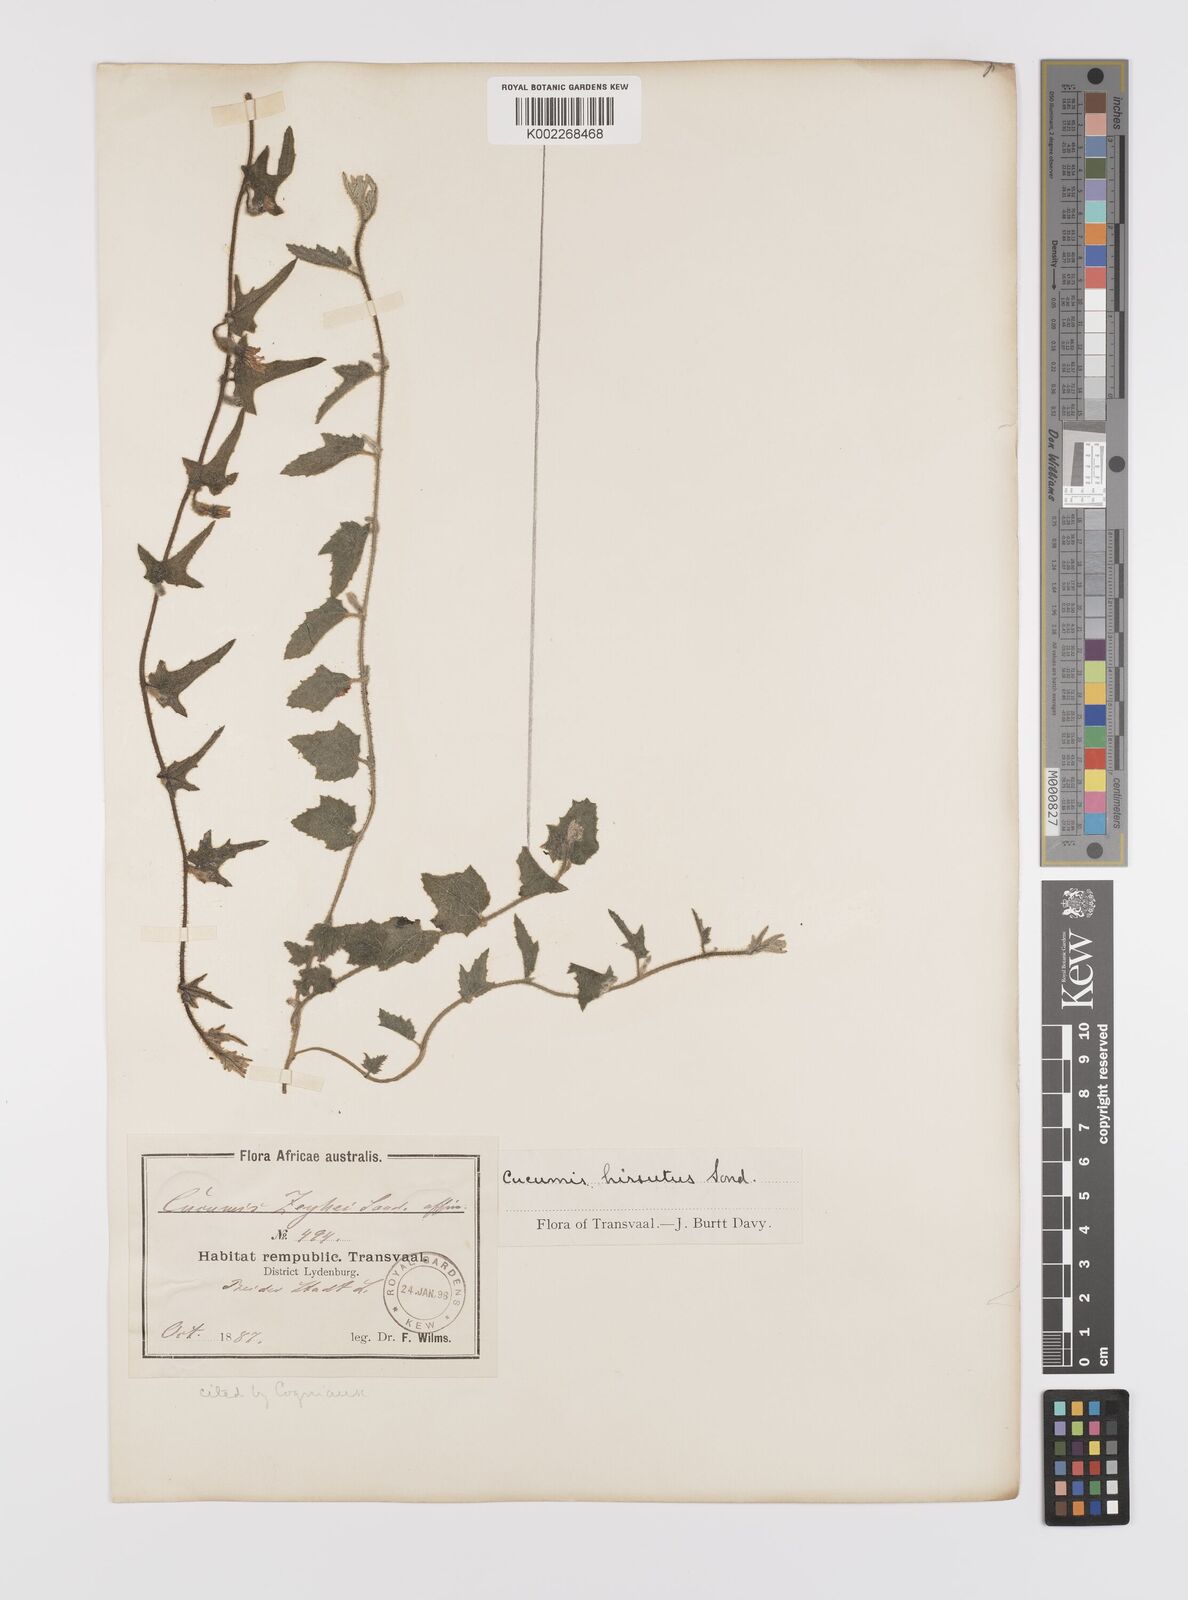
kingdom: Plantae
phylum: Tracheophyta
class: Magnoliopsida
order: Cucurbitales
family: Cucurbitaceae
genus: Cucumis
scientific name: Cucumis hirsutus
